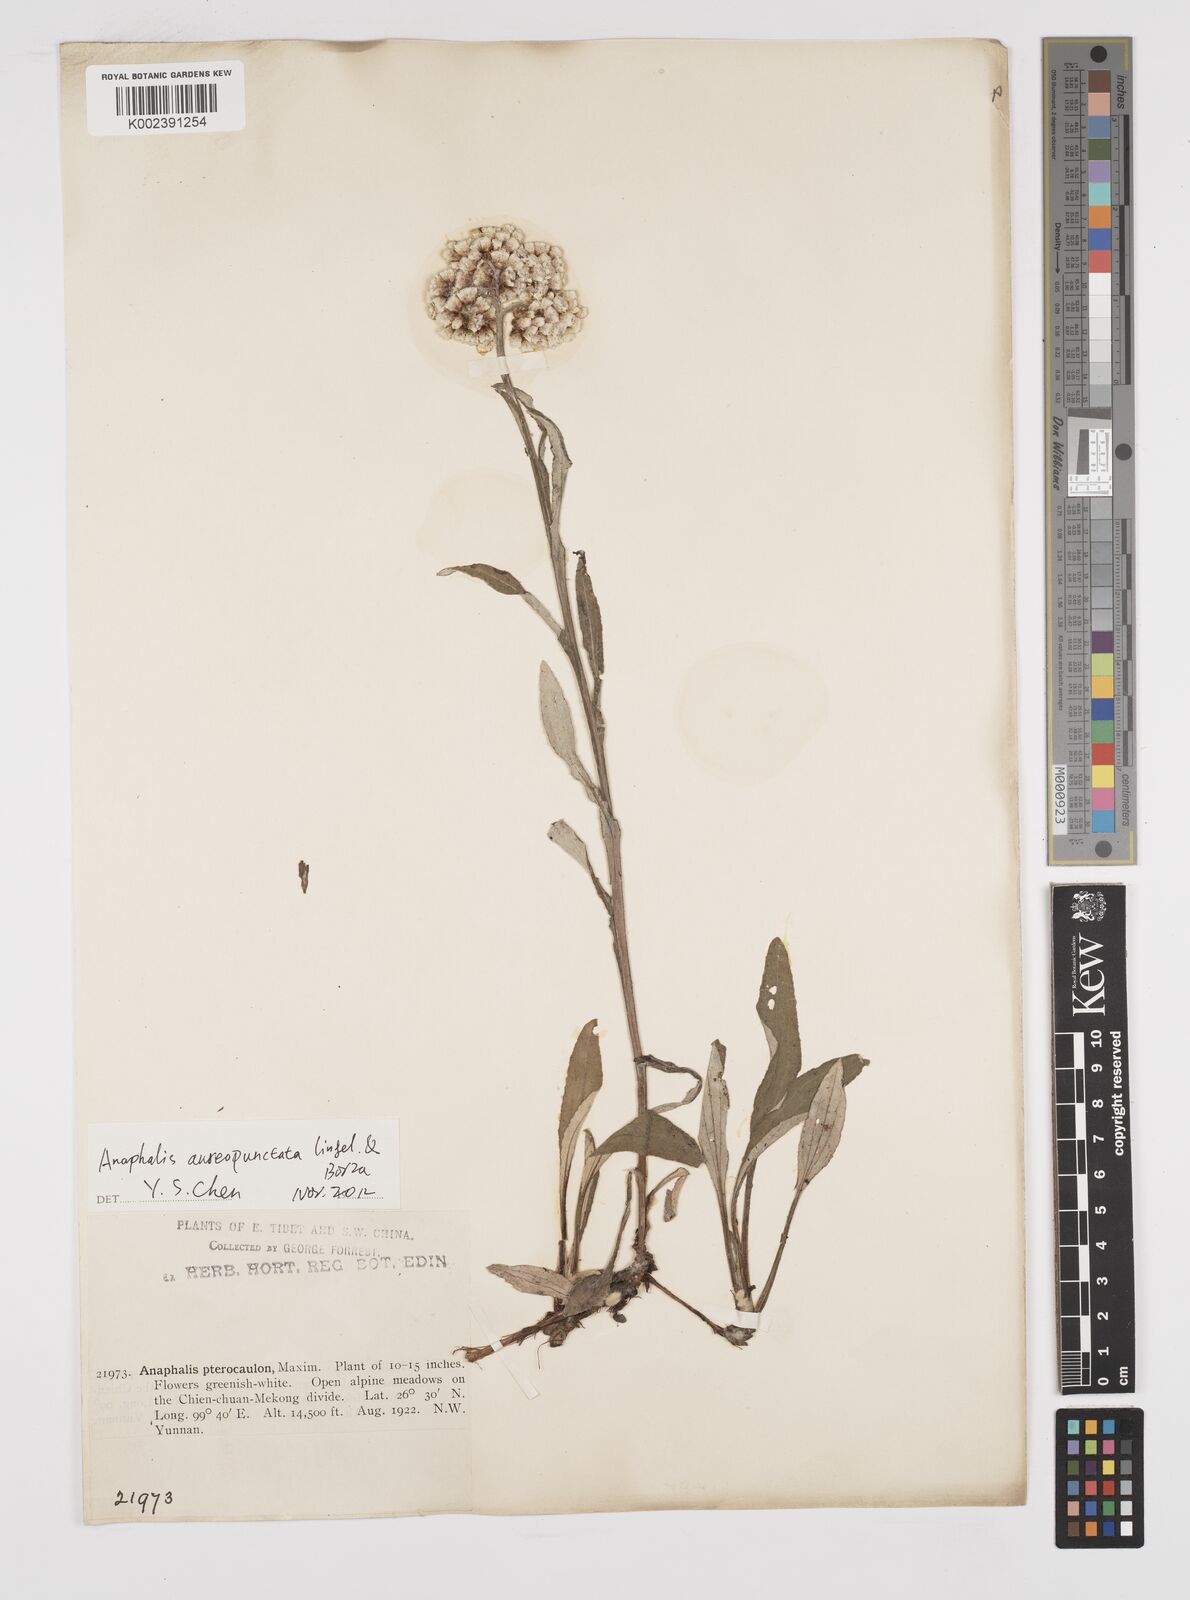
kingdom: Plantae
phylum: Tracheophyta
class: Magnoliopsida
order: Asterales
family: Asteraceae
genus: Anaphalis
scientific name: Anaphalis sinica
